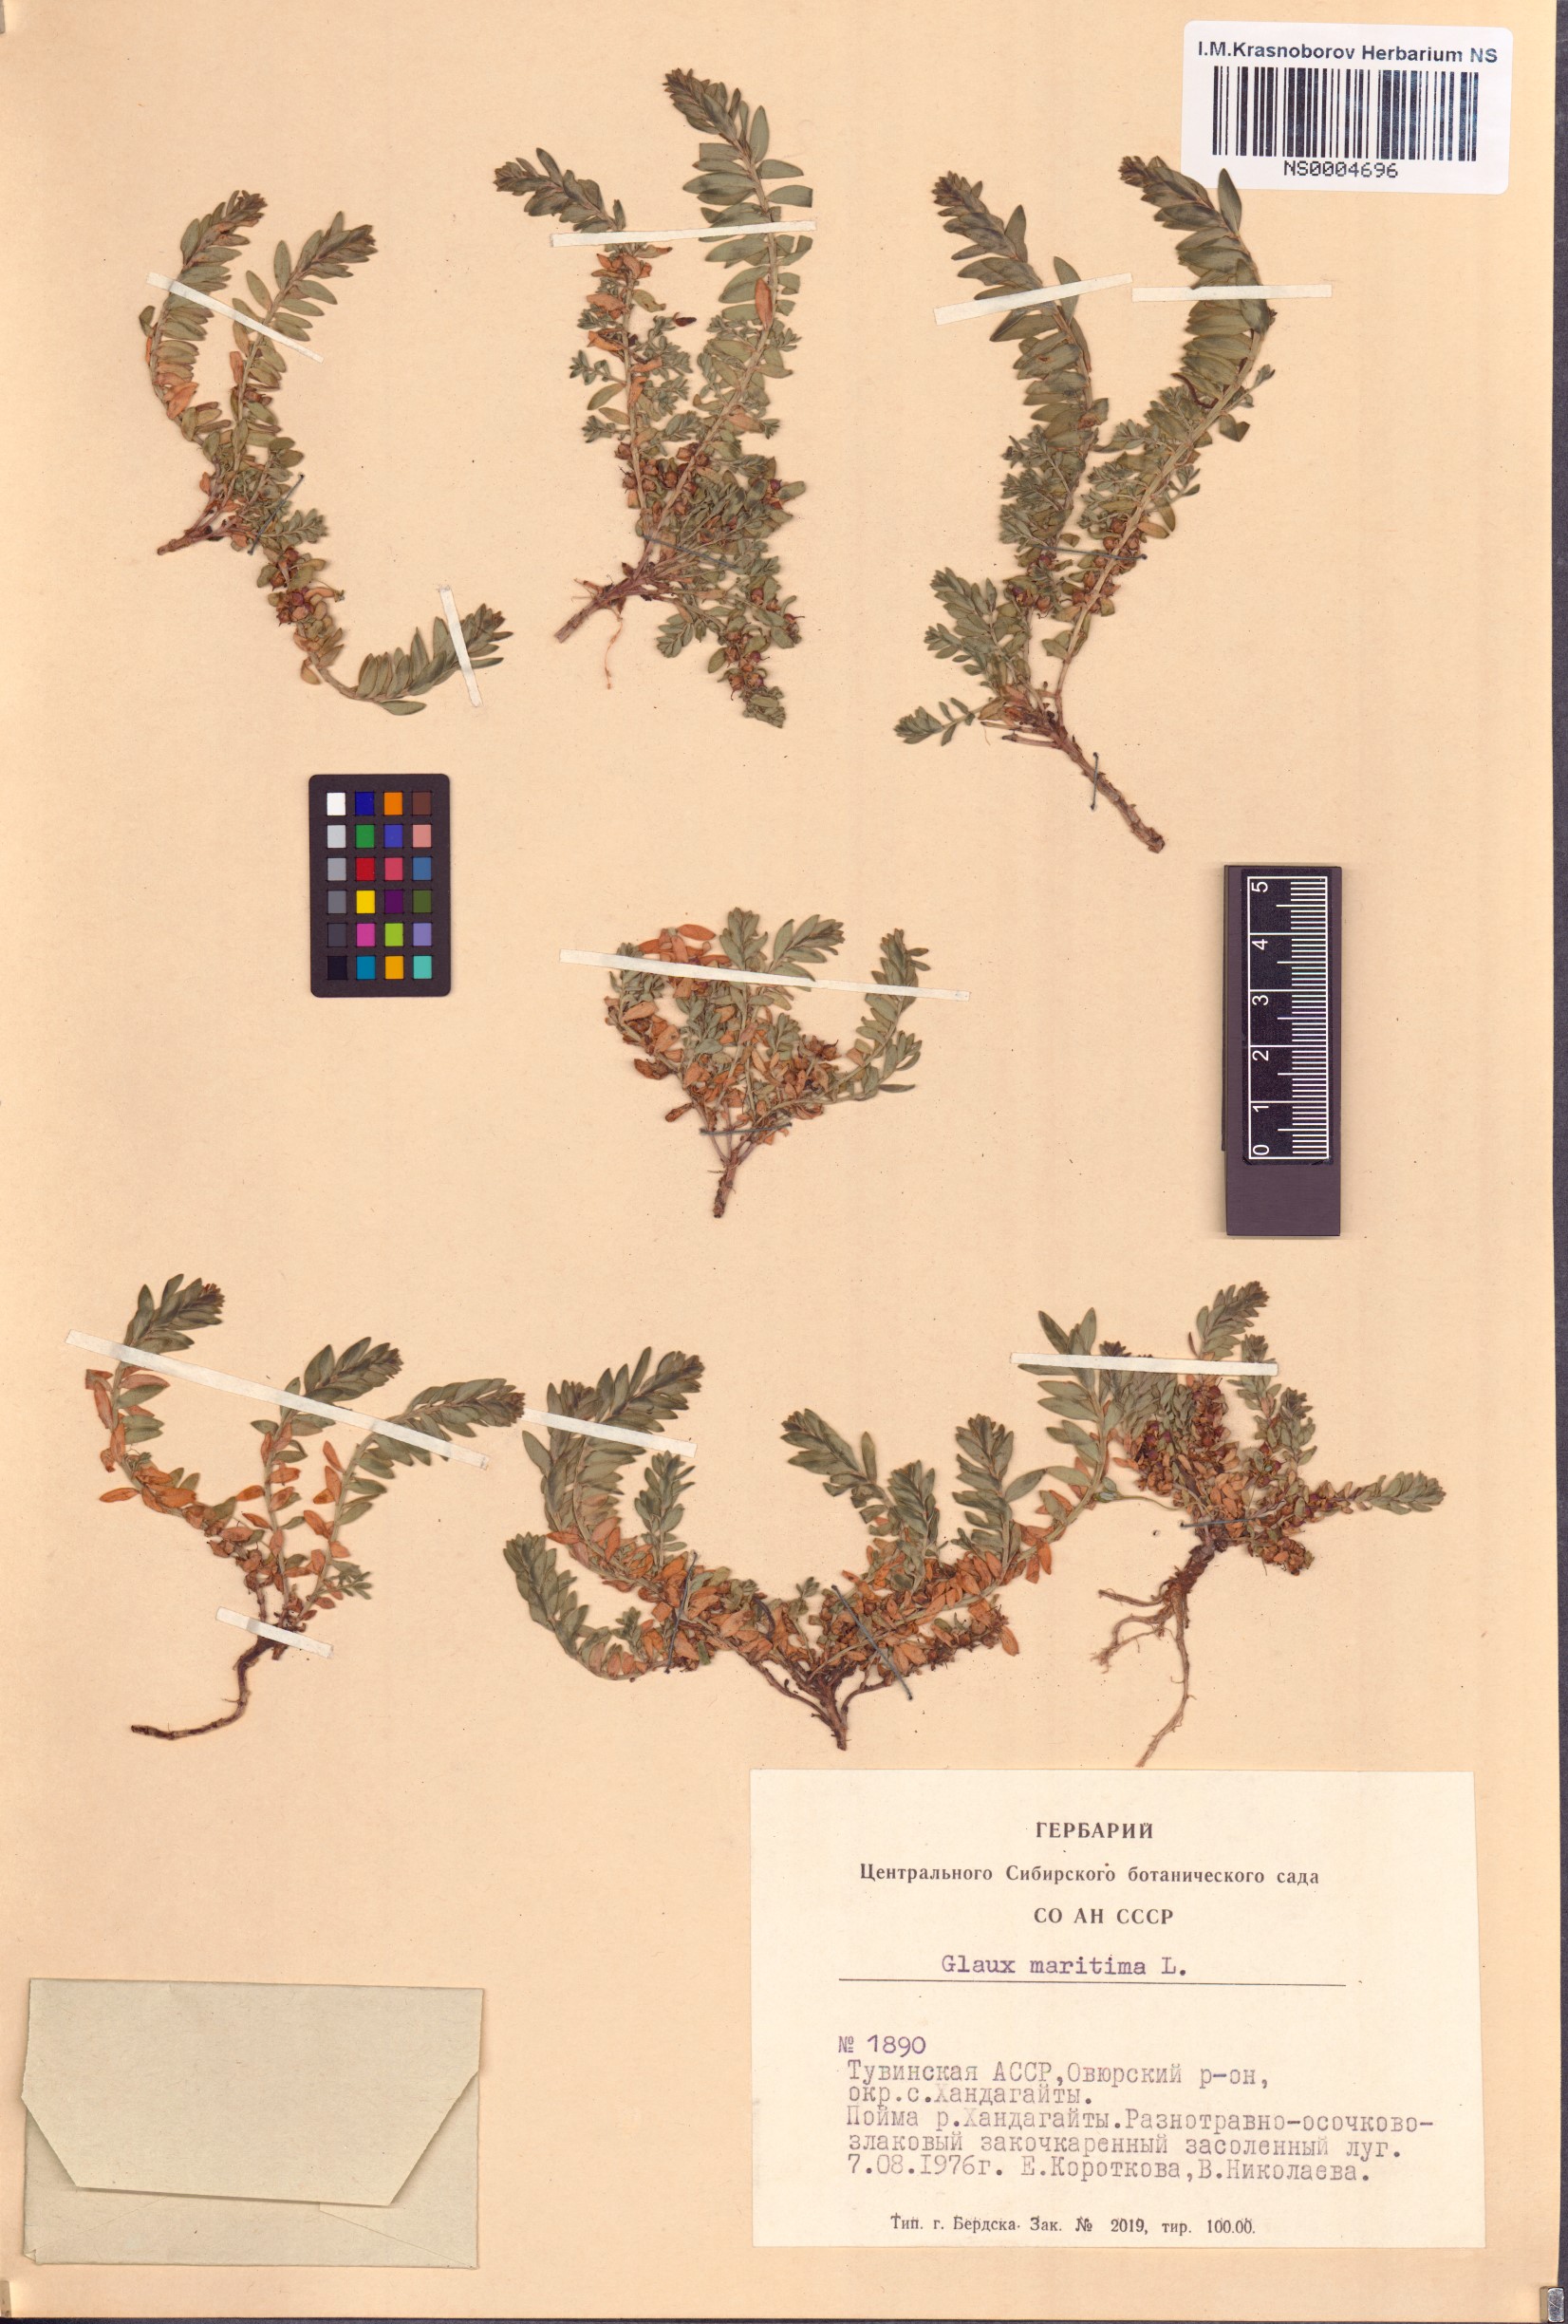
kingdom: Plantae
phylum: Tracheophyta
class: Magnoliopsida
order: Ericales
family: Primulaceae
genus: Lysimachia
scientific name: Lysimachia maritima
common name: Sea milkwort
